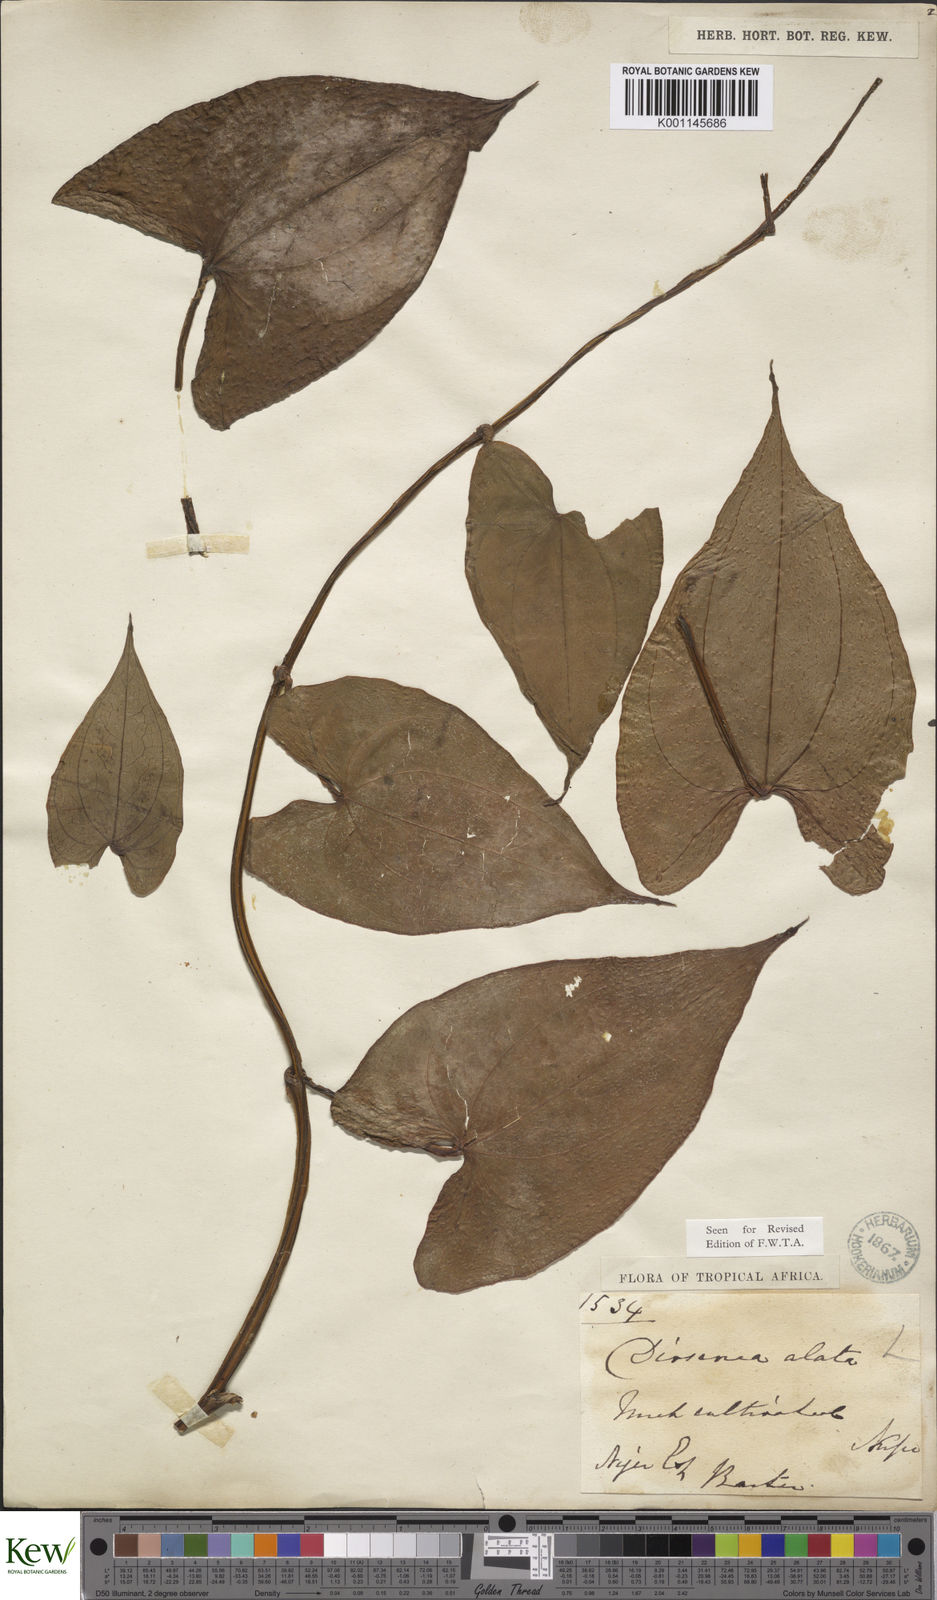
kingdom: Plantae
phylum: Tracheophyta
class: Liliopsida
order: Dioscoreales
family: Dioscoreaceae
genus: Dioscorea
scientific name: Dioscorea alata
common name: Water yam
